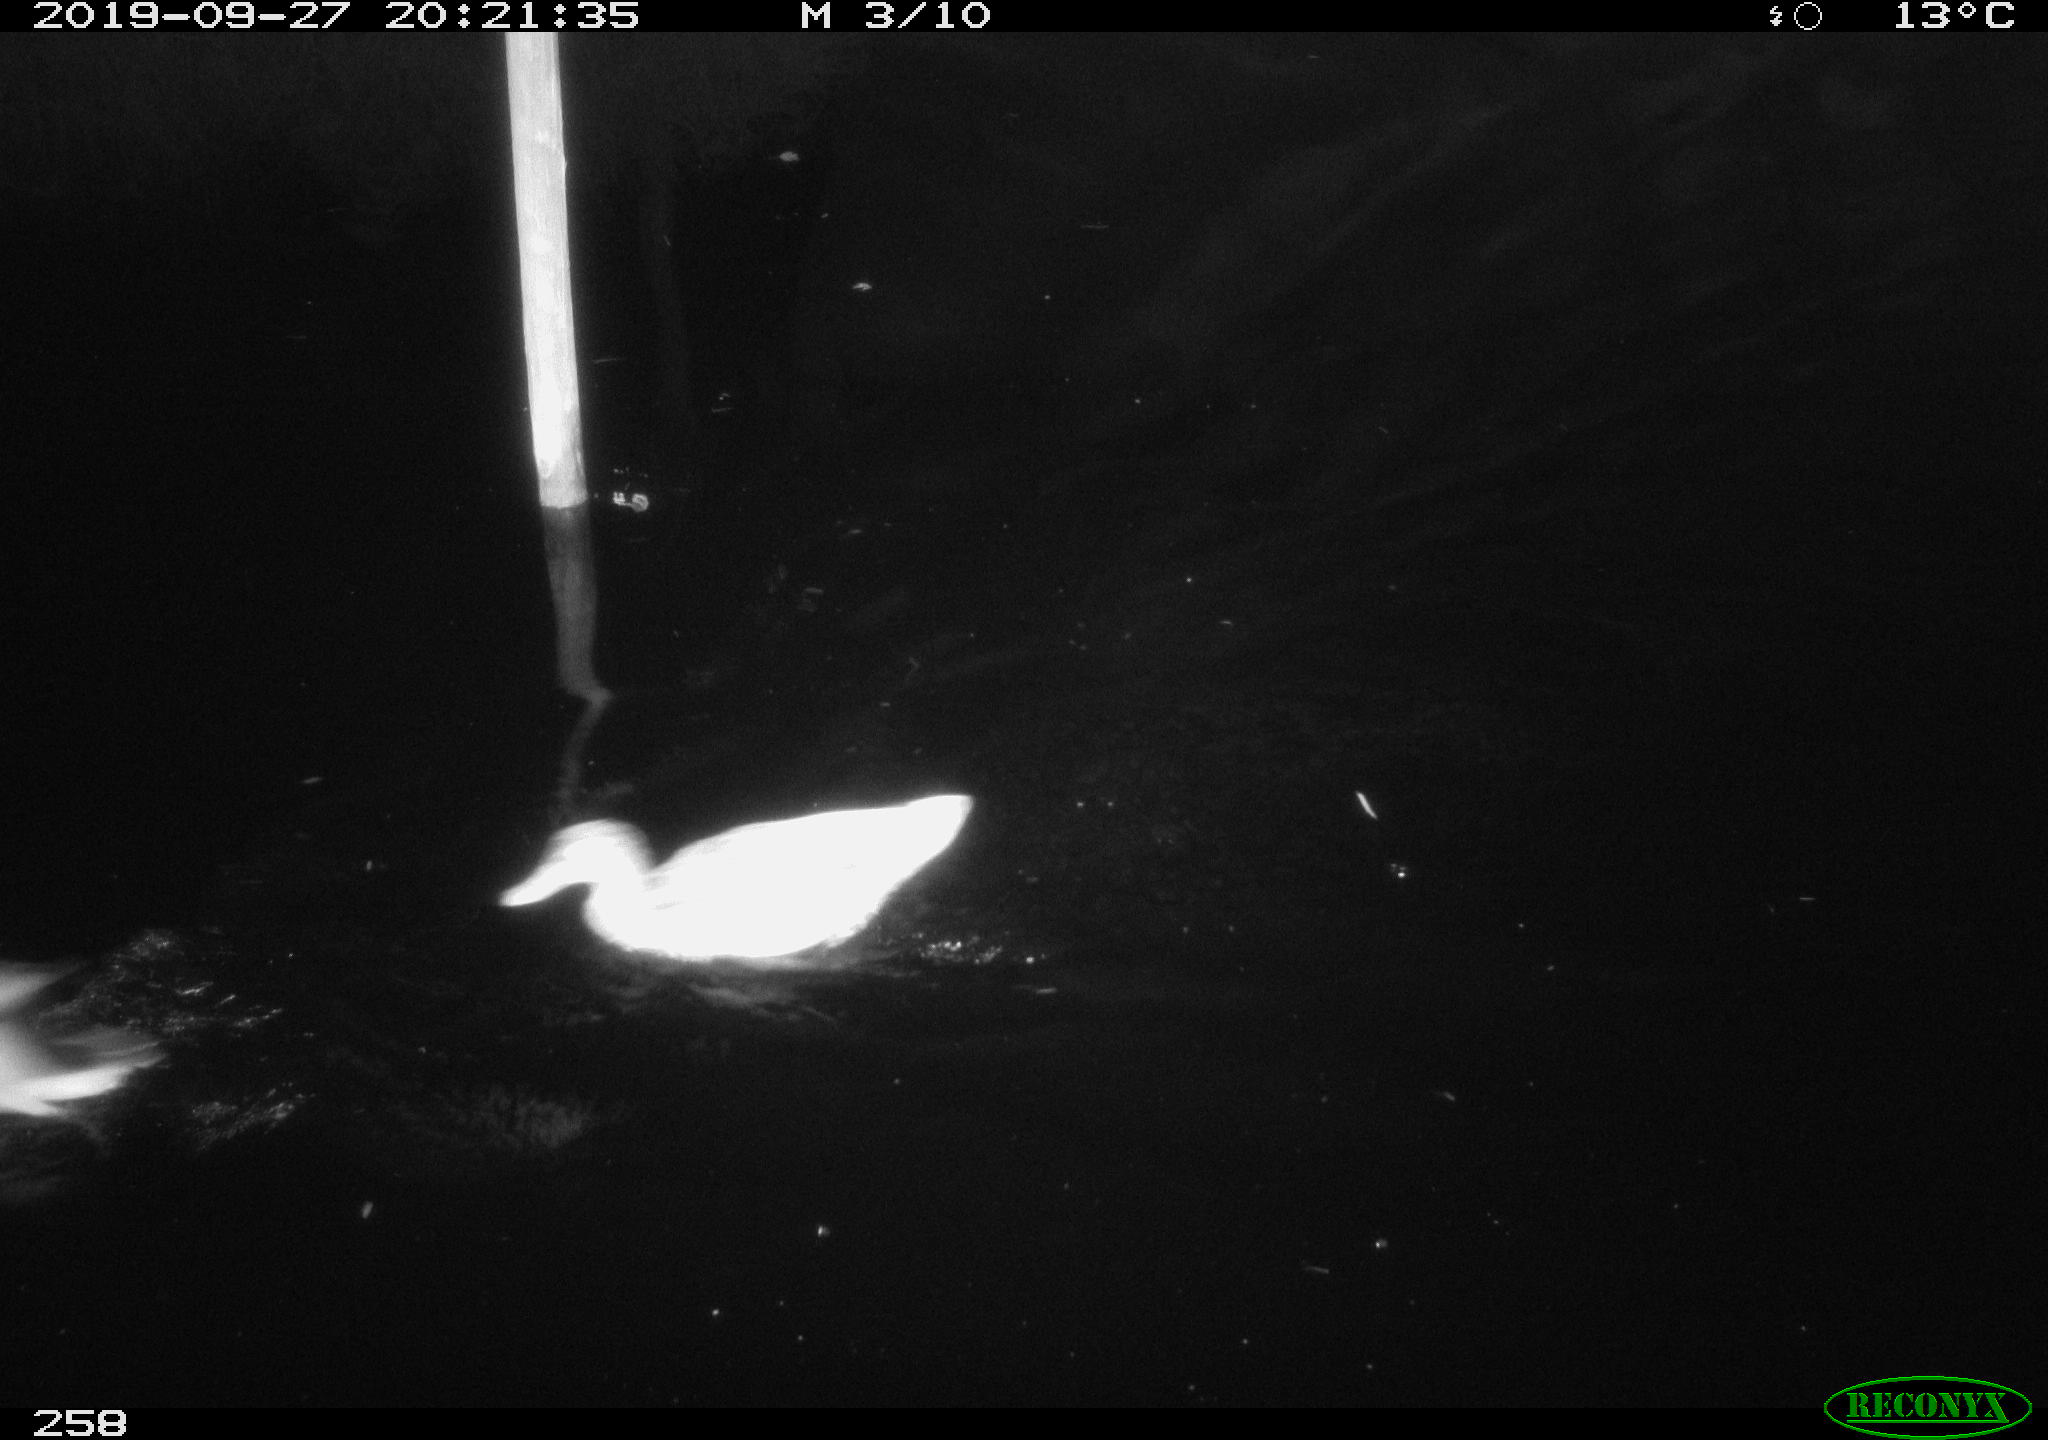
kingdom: Animalia
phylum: Chordata
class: Aves
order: Anseriformes
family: Anatidae
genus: Anas
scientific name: Anas platyrhynchos
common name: Mallard
